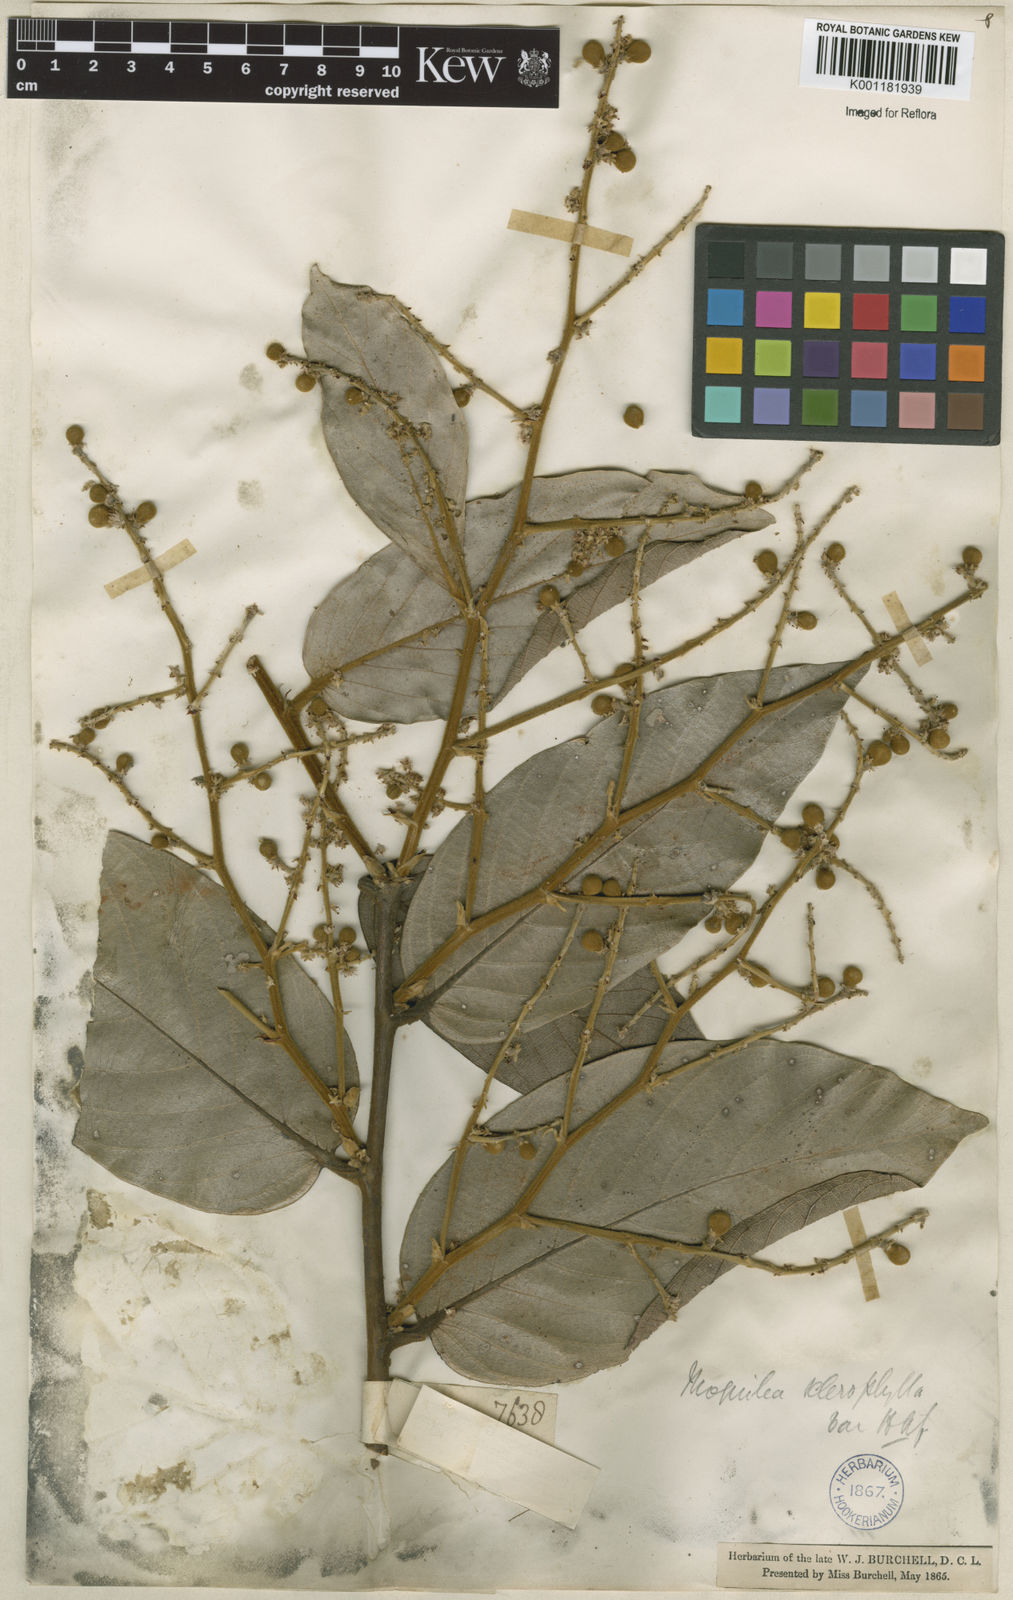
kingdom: Plantae
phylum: Tracheophyta
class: Magnoliopsida
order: Malpighiales
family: Chrysobalanaceae
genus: Leptobalanus
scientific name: Leptobalanus sclerophyllus
